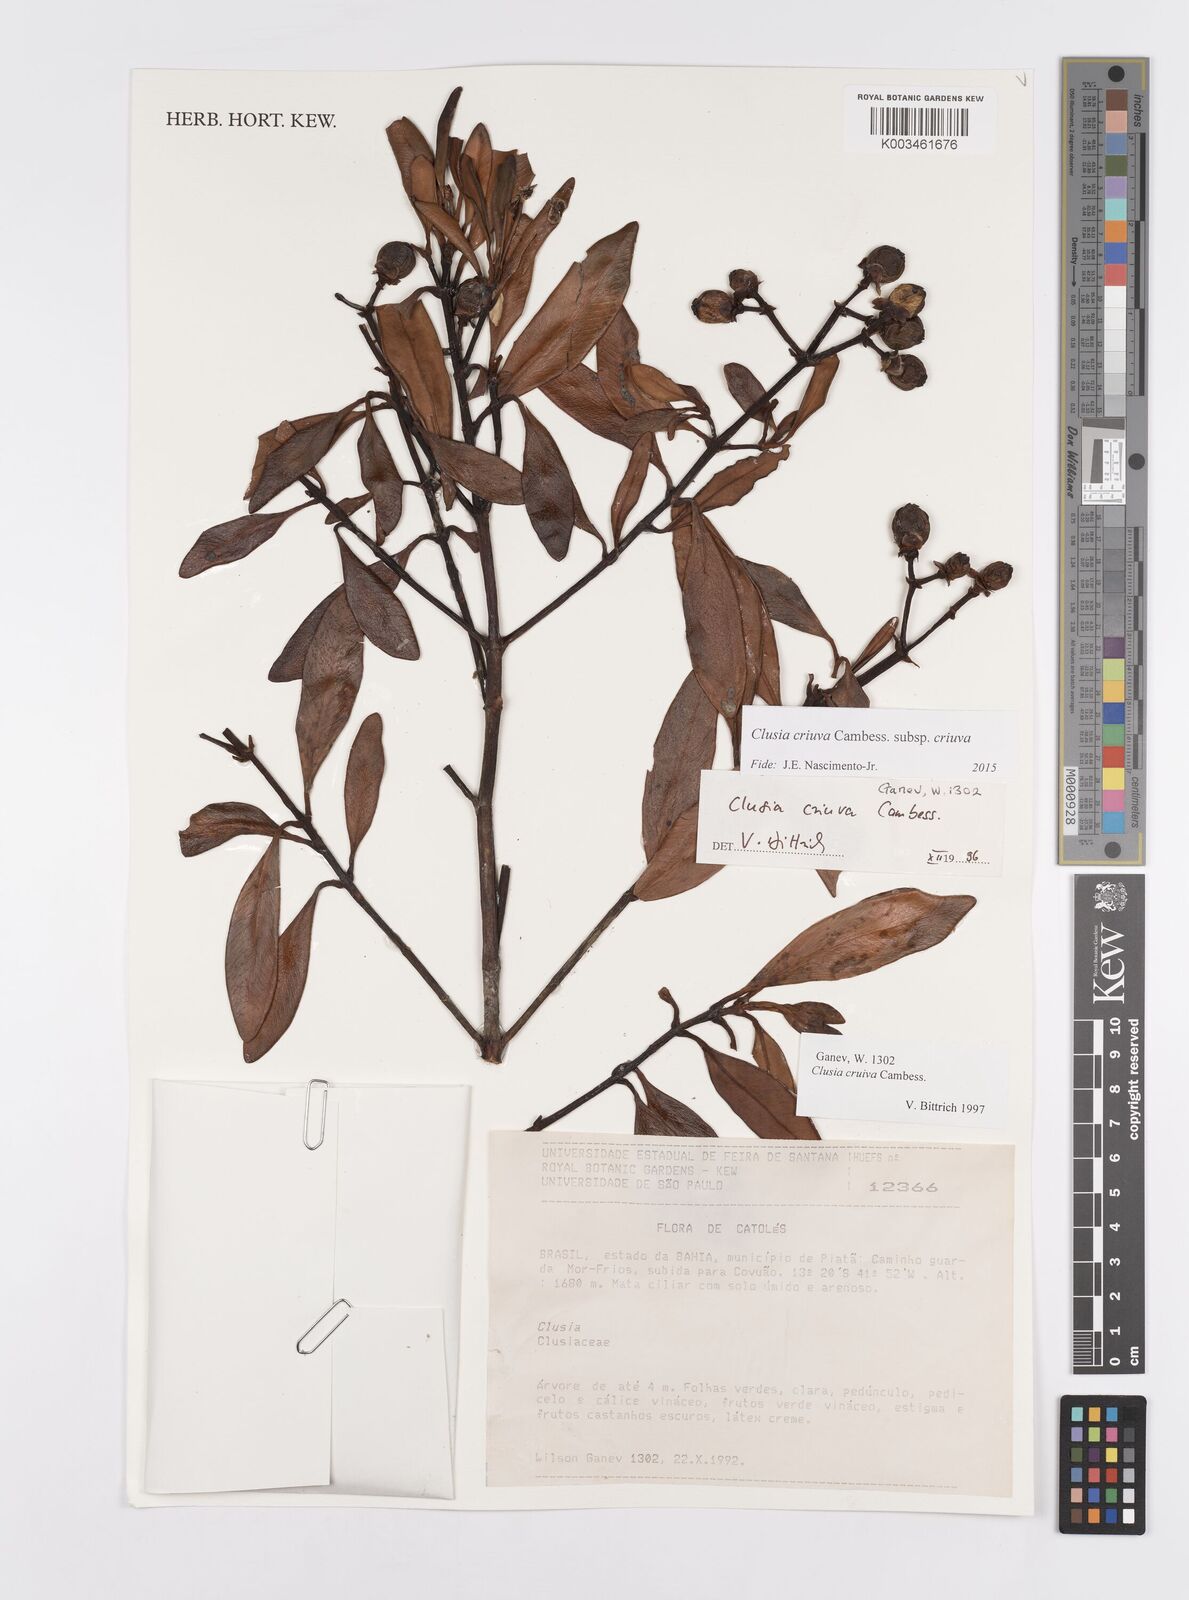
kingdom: Plantae
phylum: Tracheophyta
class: Magnoliopsida
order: Malpighiales
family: Clusiaceae
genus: Clusia
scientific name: Clusia criuva
